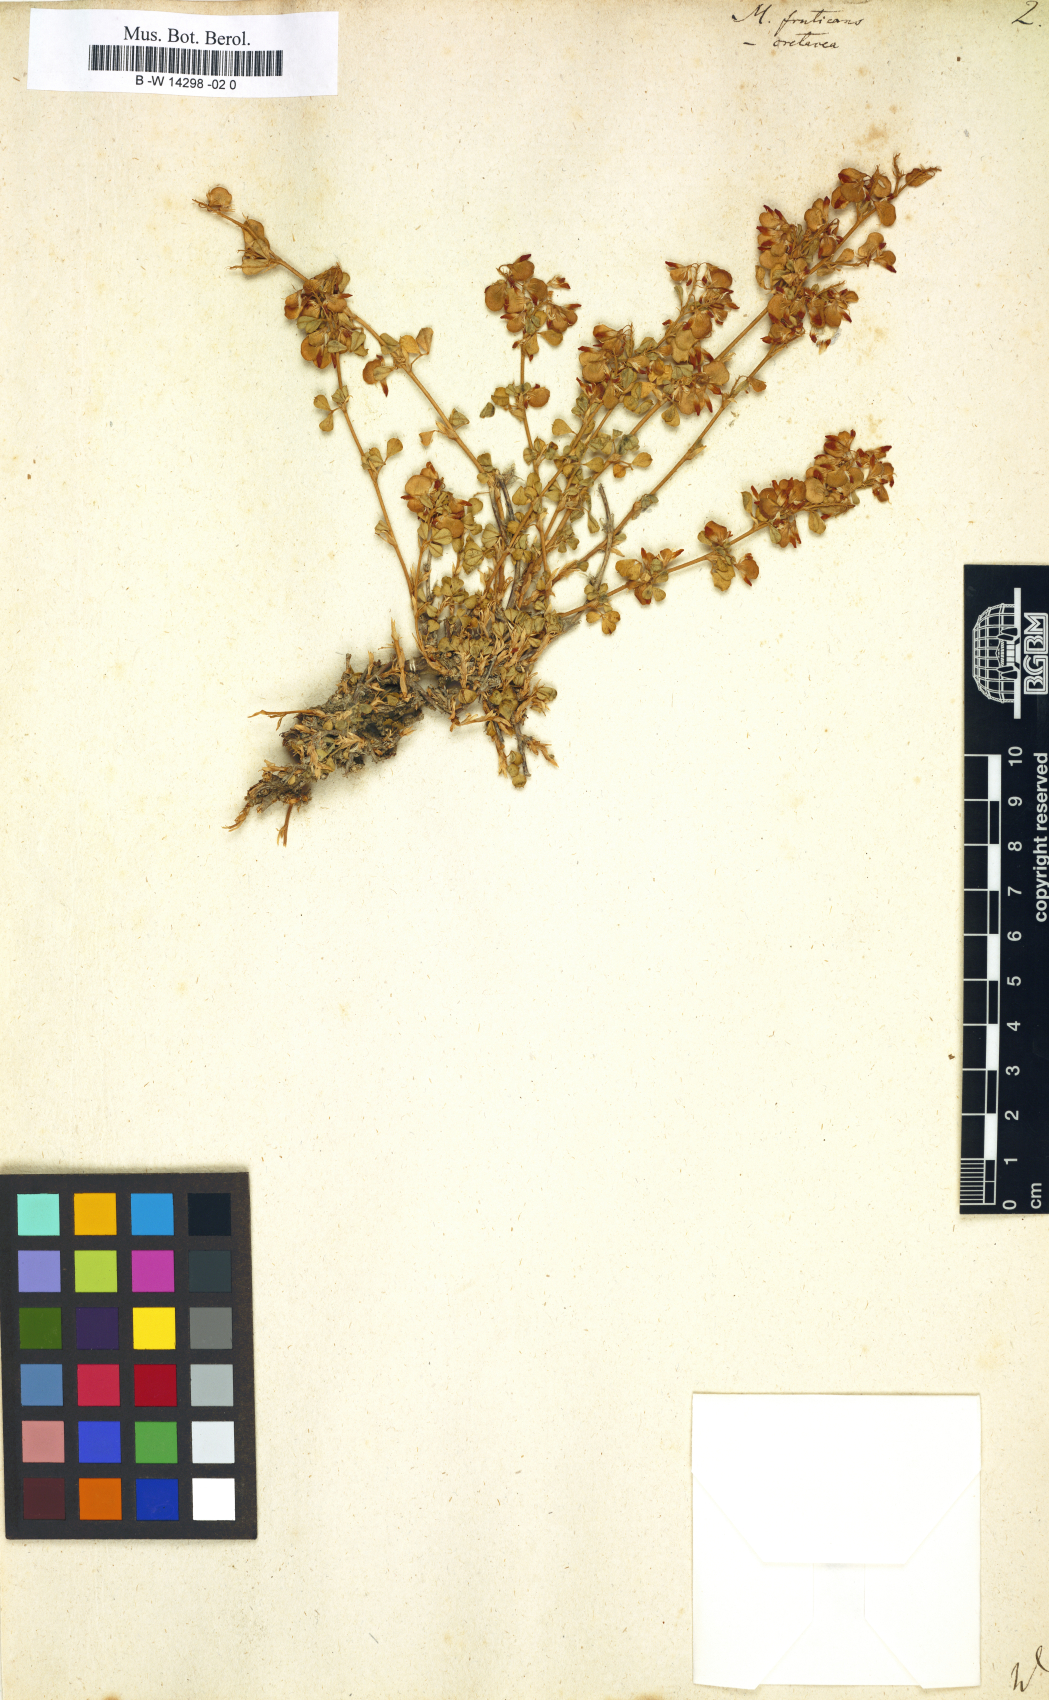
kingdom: Plantae
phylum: Tracheophyta
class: Magnoliopsida
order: Fabales
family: Fabaceae
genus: Medicago
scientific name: Medicago cretacea
